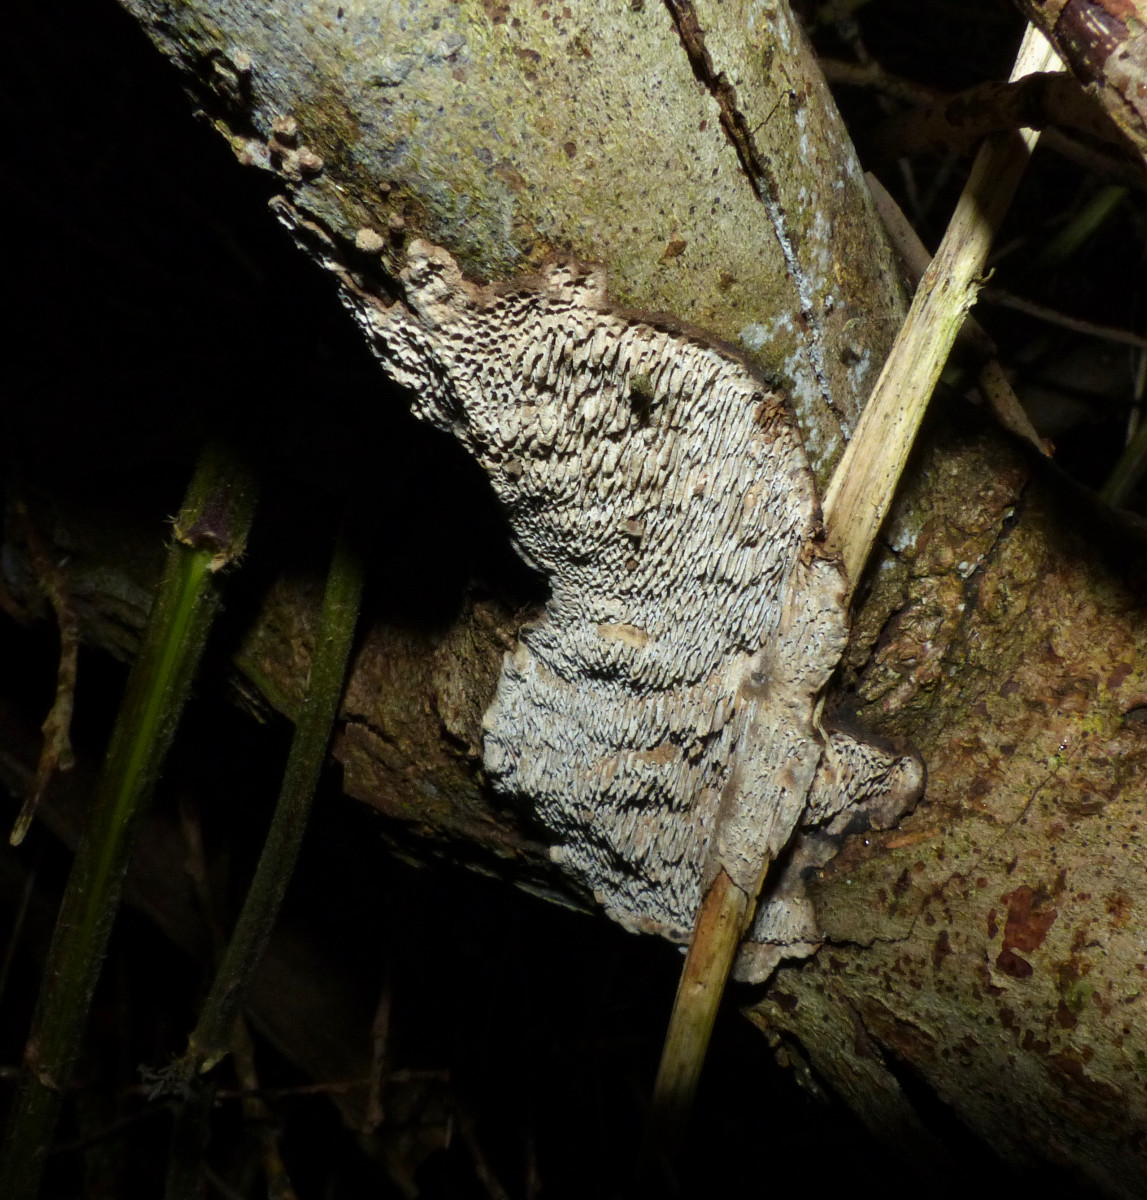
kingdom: Fungi
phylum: Basidiomycota
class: Agaricomycetes
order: Polyporales
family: Polyporaceae
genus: Podofomes
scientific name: Podofomes mollis
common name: blød begporesvamp
